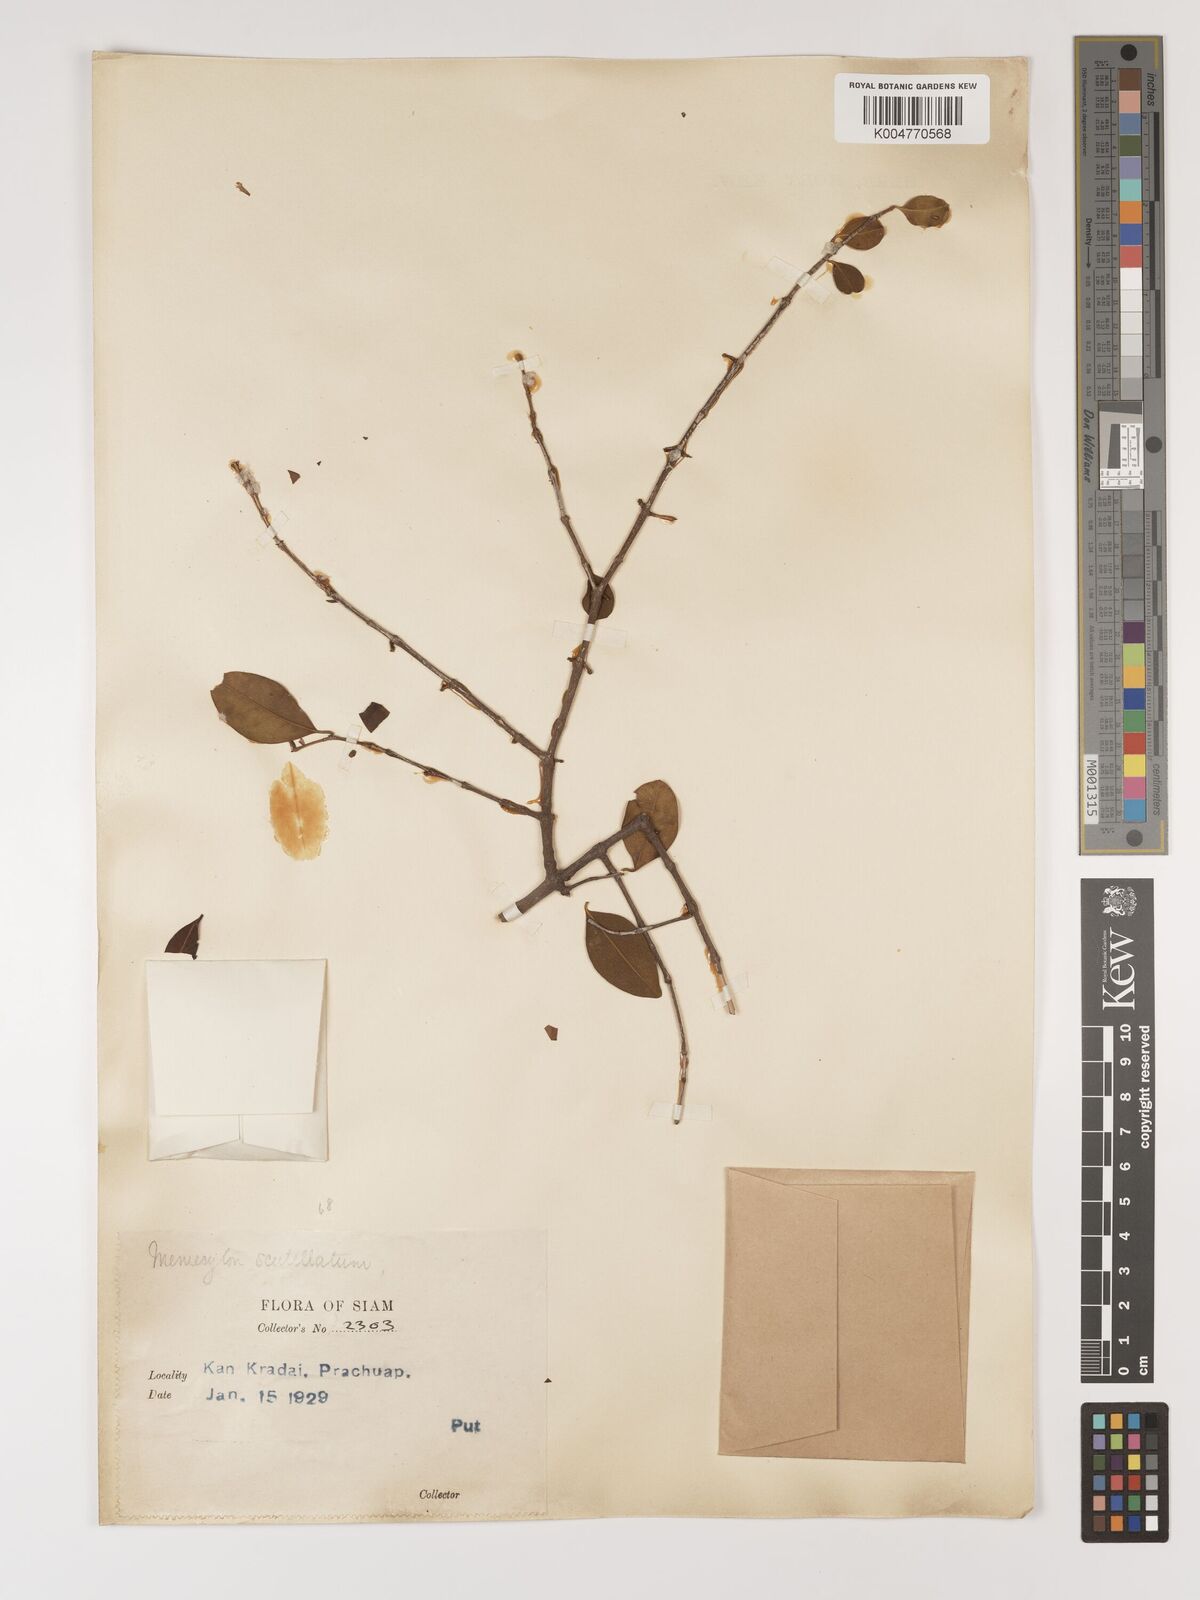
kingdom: Plantae
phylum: Tracheophyta
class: Magnoliopsida
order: Myrtales
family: Melastomataceae
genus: Memecylon
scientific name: Memecylon scutellatum
